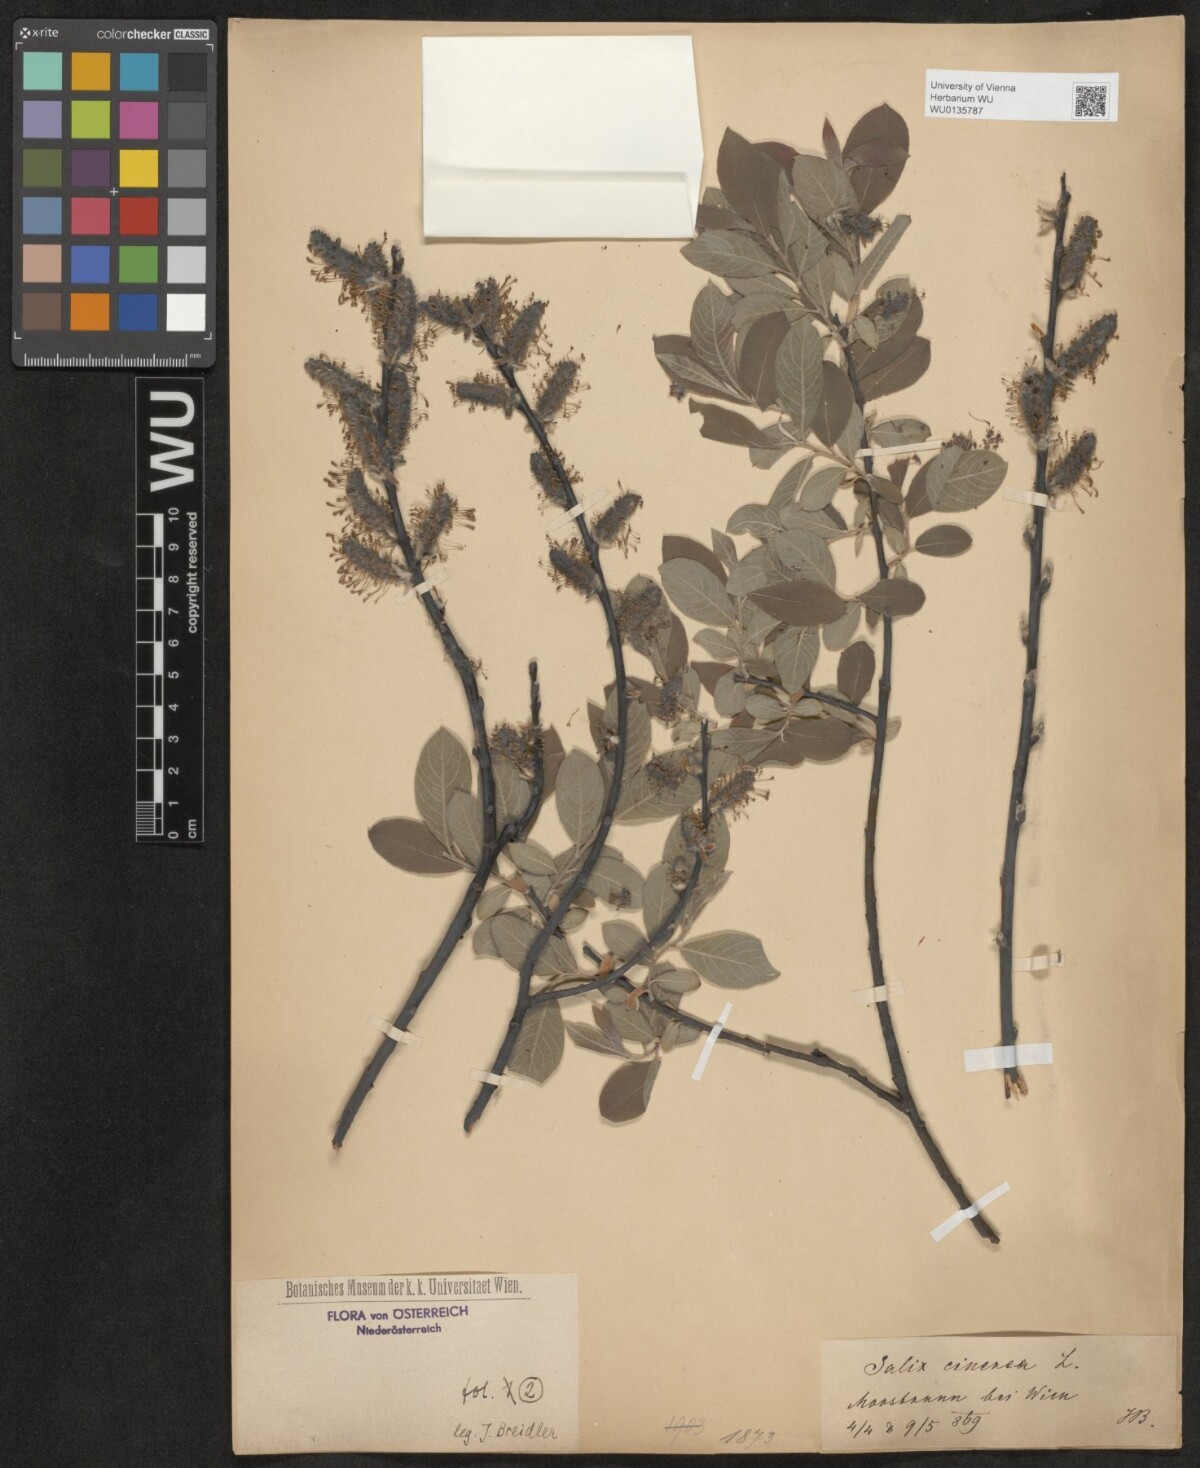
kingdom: Plantae
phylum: Tracheophyta
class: Magnoliopsida
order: Malpighiales
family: Salicaceae
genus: Salix
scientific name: Salix cinerea
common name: Common sallow
